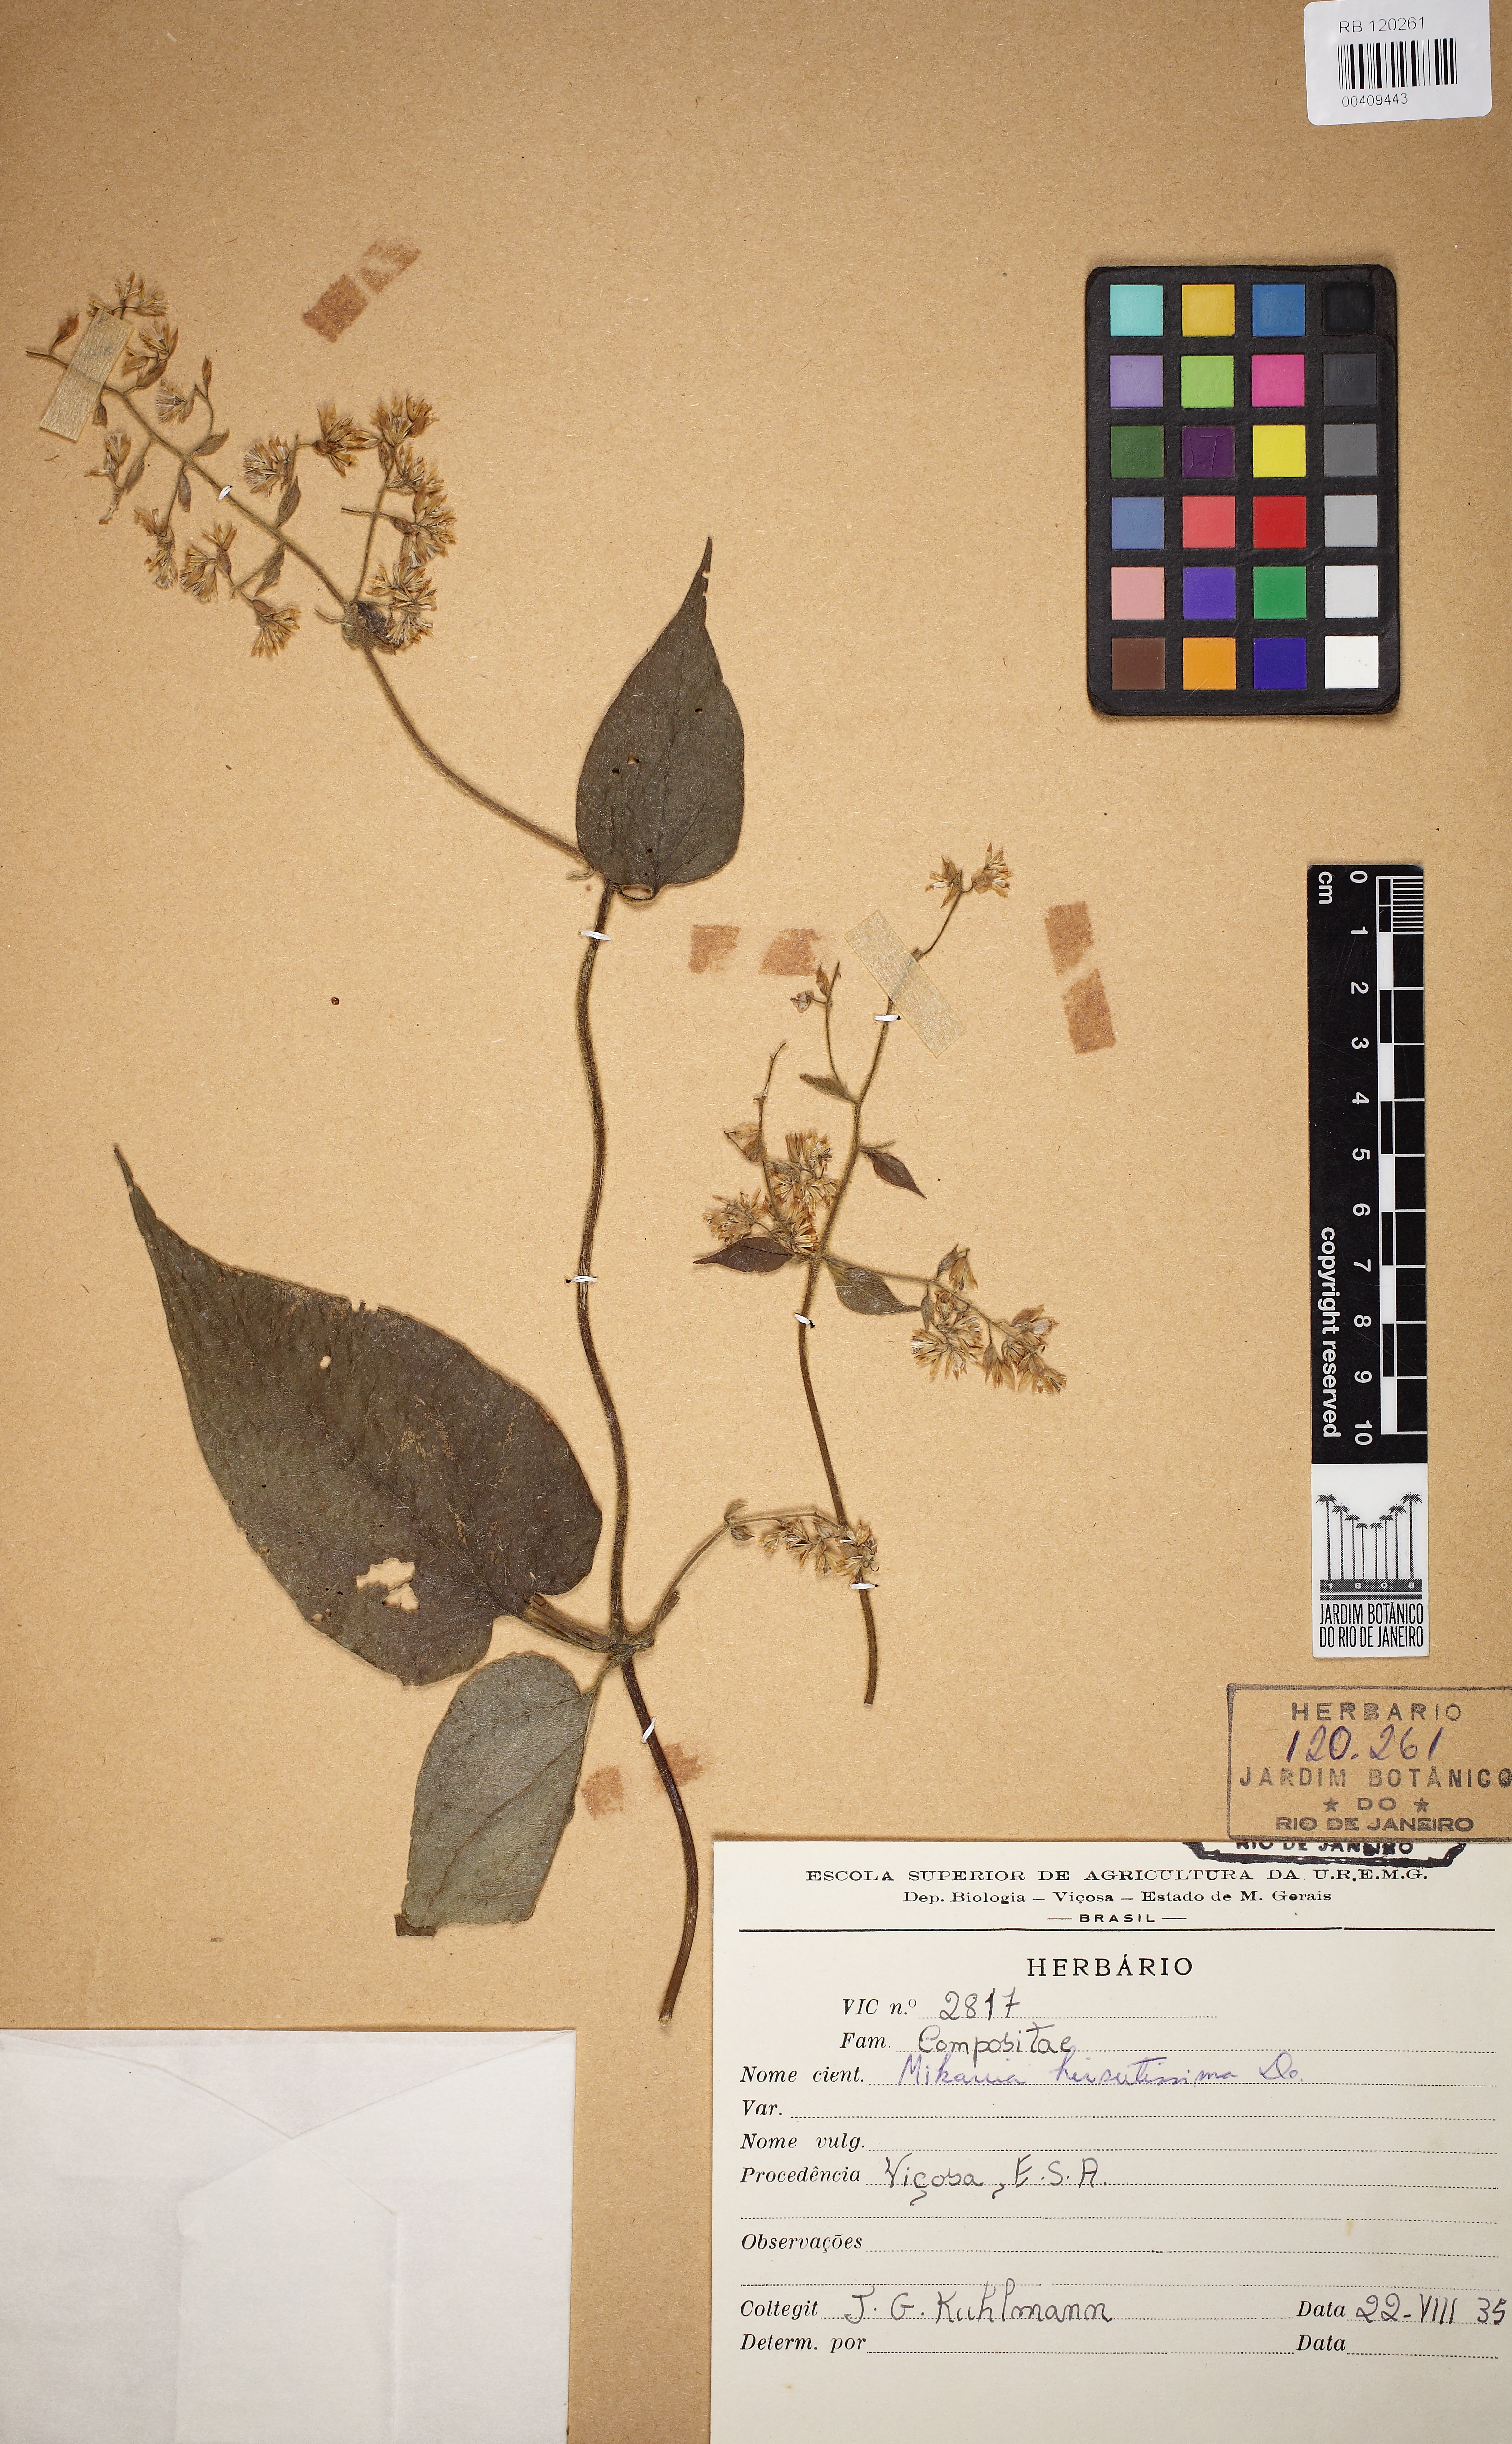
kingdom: Plantae
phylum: Tracheophyta
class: Magnoliopsida
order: Asterales
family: Asteraceae
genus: Mikania
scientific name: Mikania banisteriae
